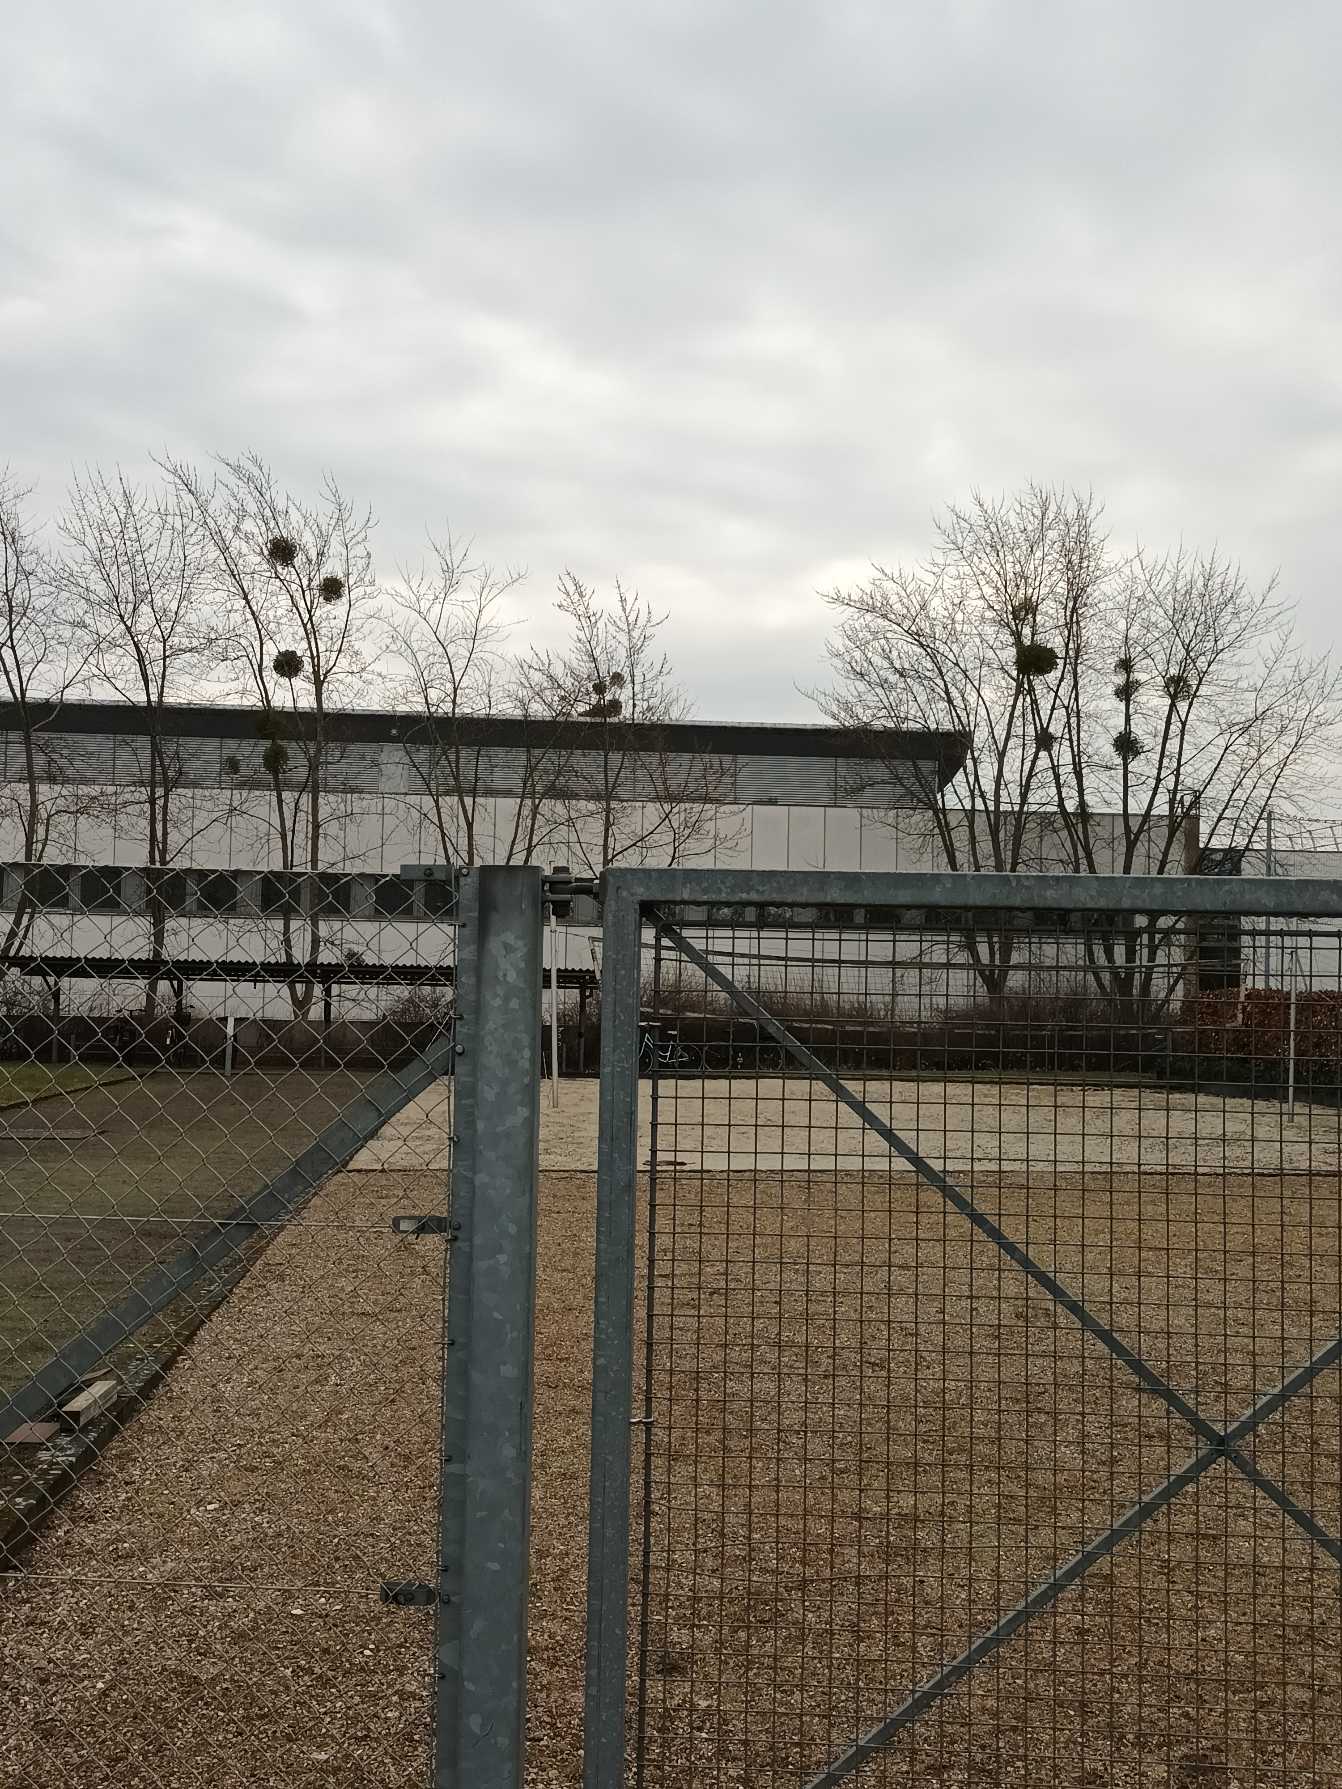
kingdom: Plantae
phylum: Tracheophyta
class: Magnoliopsida
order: Santalales
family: Viscaceae
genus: Viscum
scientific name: Viscum album
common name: Mistelten
